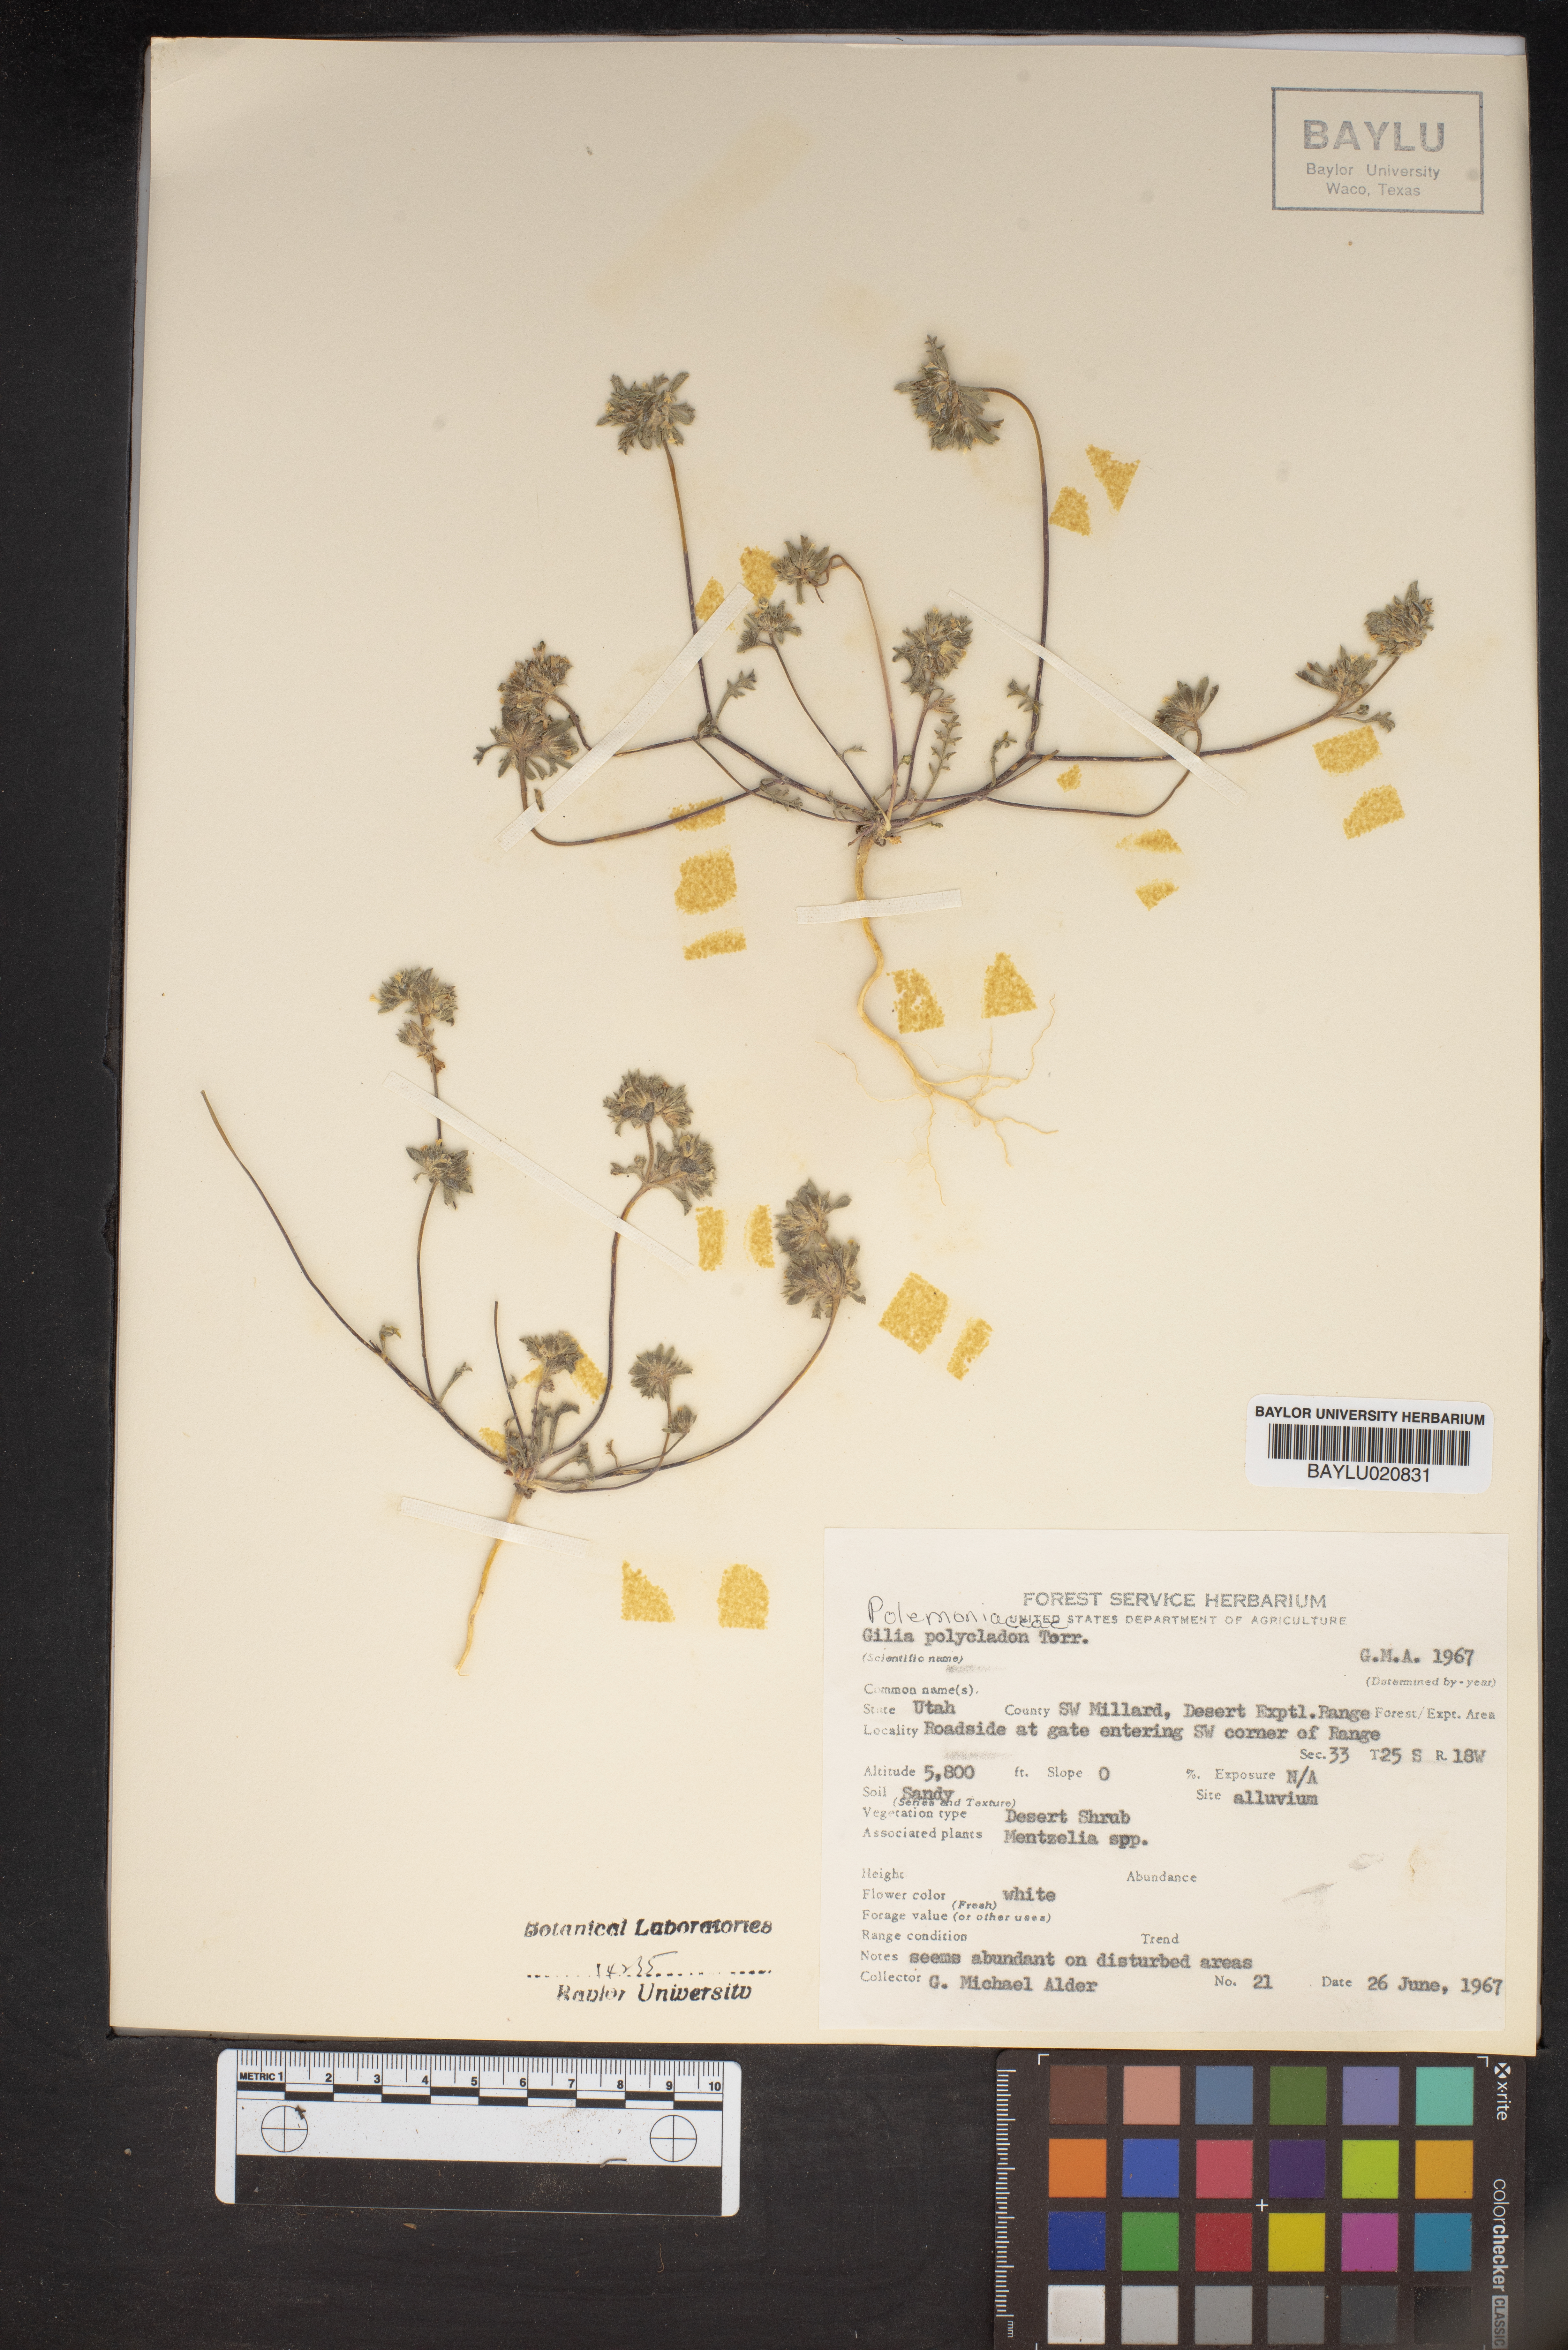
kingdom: Plantae
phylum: Tracheophyta
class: Magnoliopsida
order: Ericales
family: Polemoniaceae
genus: Ipomopsis
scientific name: Ipomopsis polycladon
